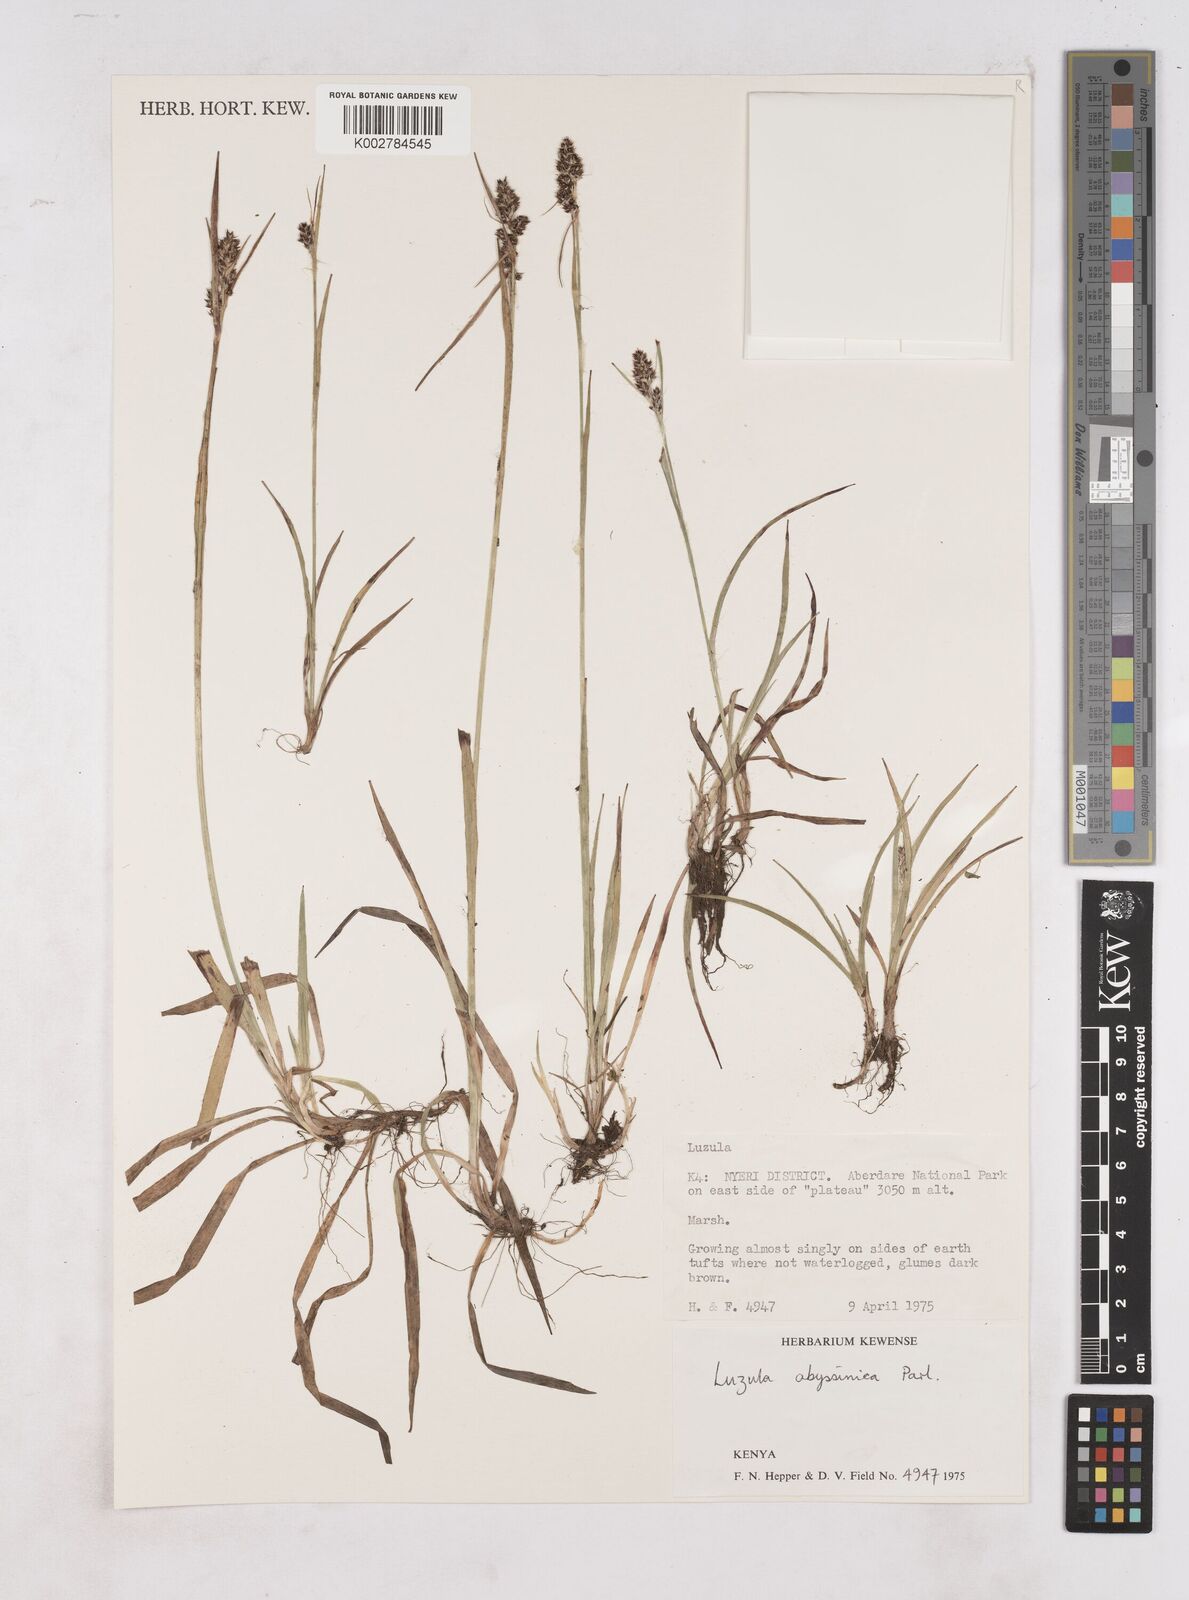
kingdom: Plantae
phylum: Tracheophyta
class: Liliopsida
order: Poales
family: Juncaceae
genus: Luzula
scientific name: Luzula abyssinica
